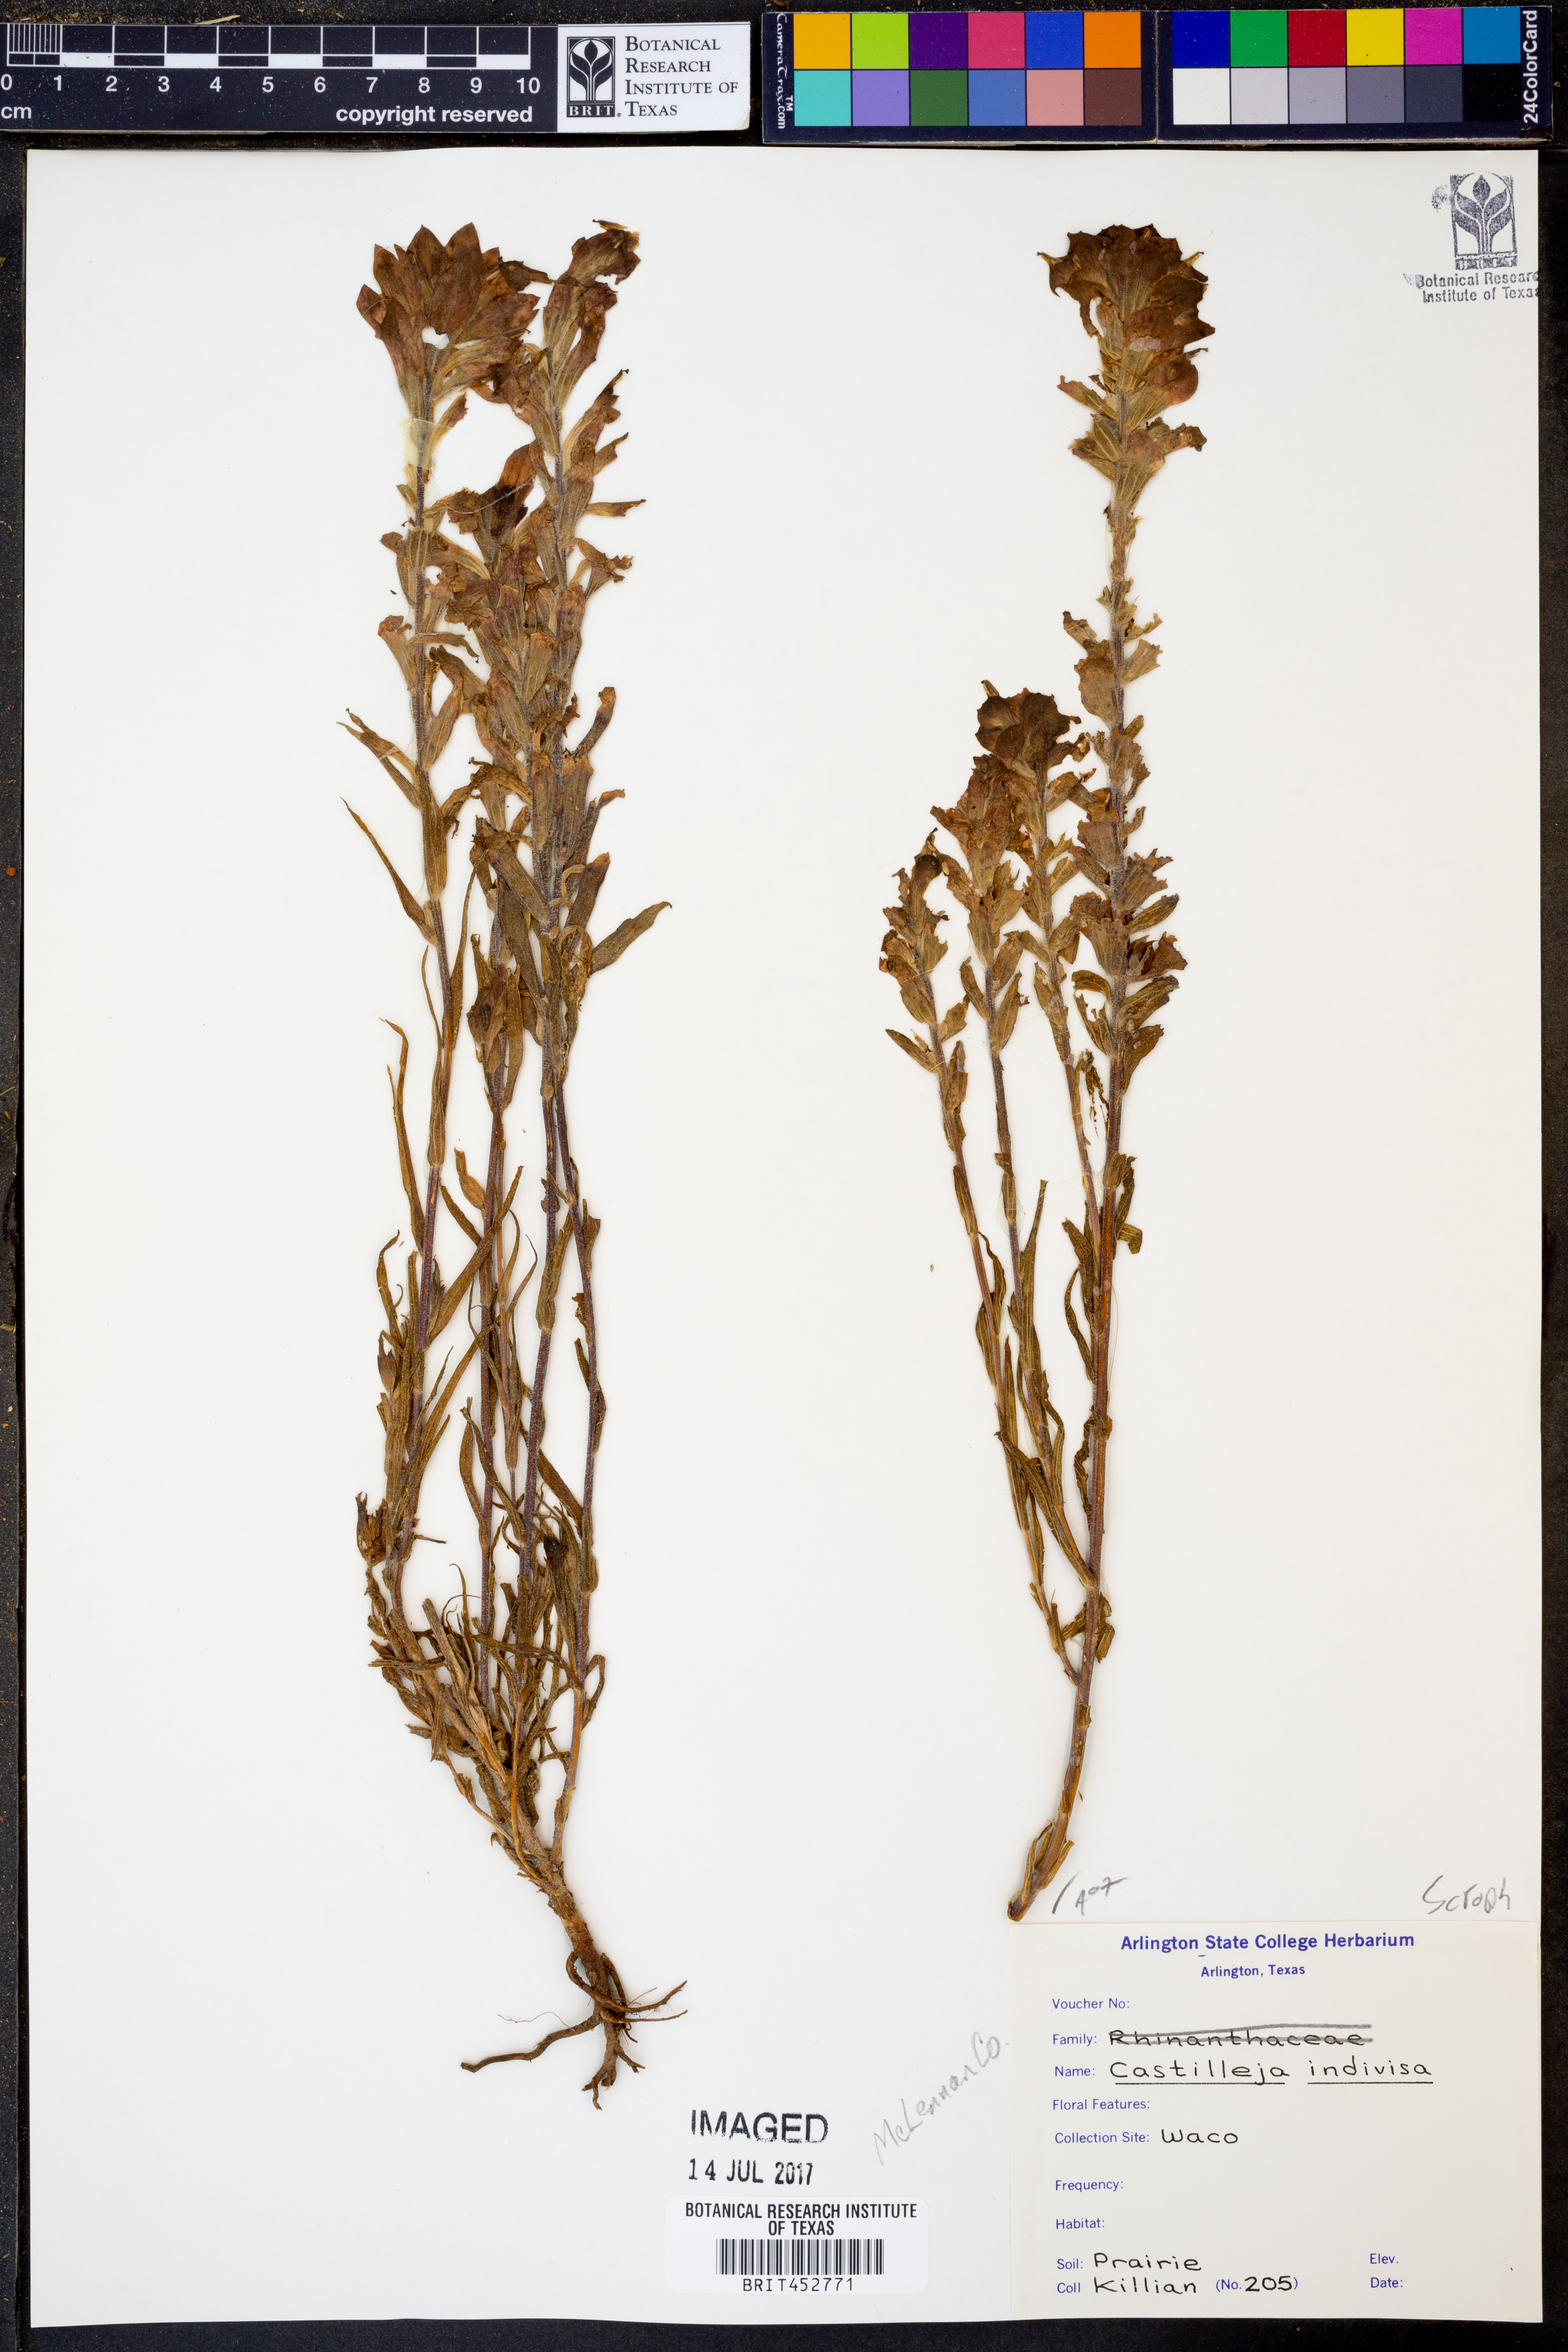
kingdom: Plantae
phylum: Tracheophyta
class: Magnoliopsida
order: Lamiales
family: Orobanchaceae
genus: Castilleja
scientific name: Castilleja indivisa
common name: Texas paintbrush
